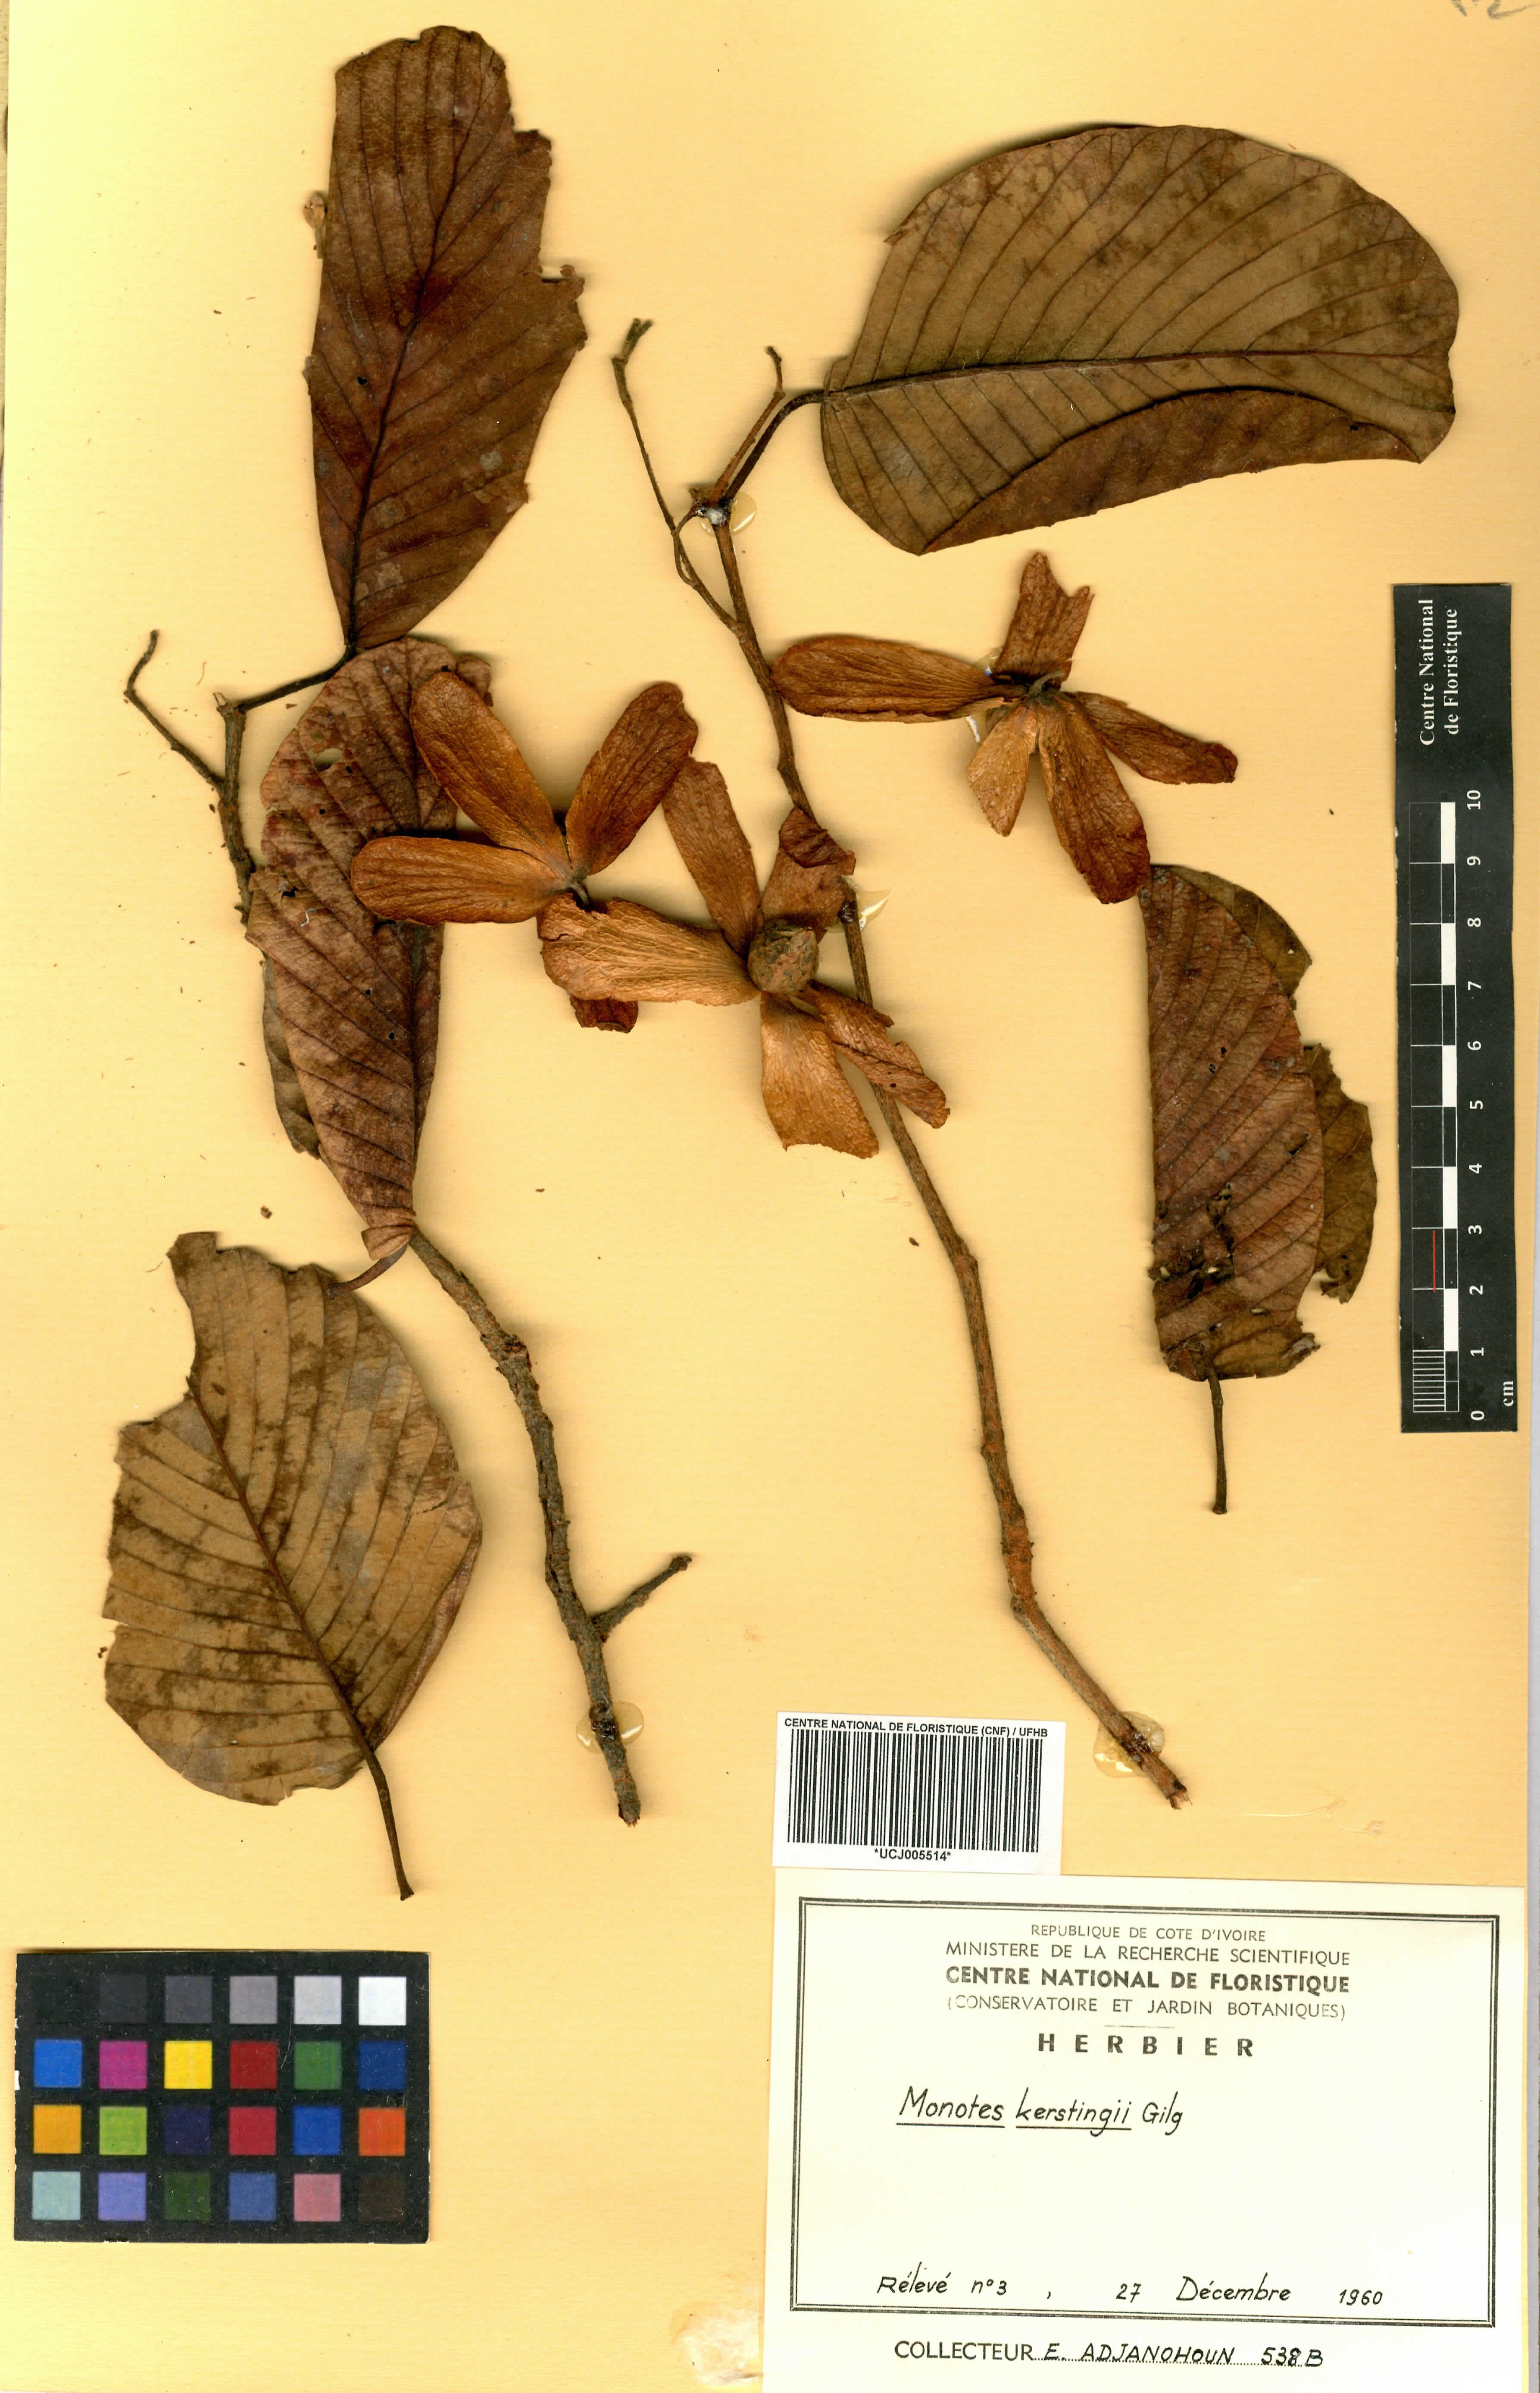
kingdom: Plantae
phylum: Tracheophyta
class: Magnoliopsida
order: Malvales
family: Dipterocarpaceae
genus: Monotes
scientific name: Monotes kerstingii
